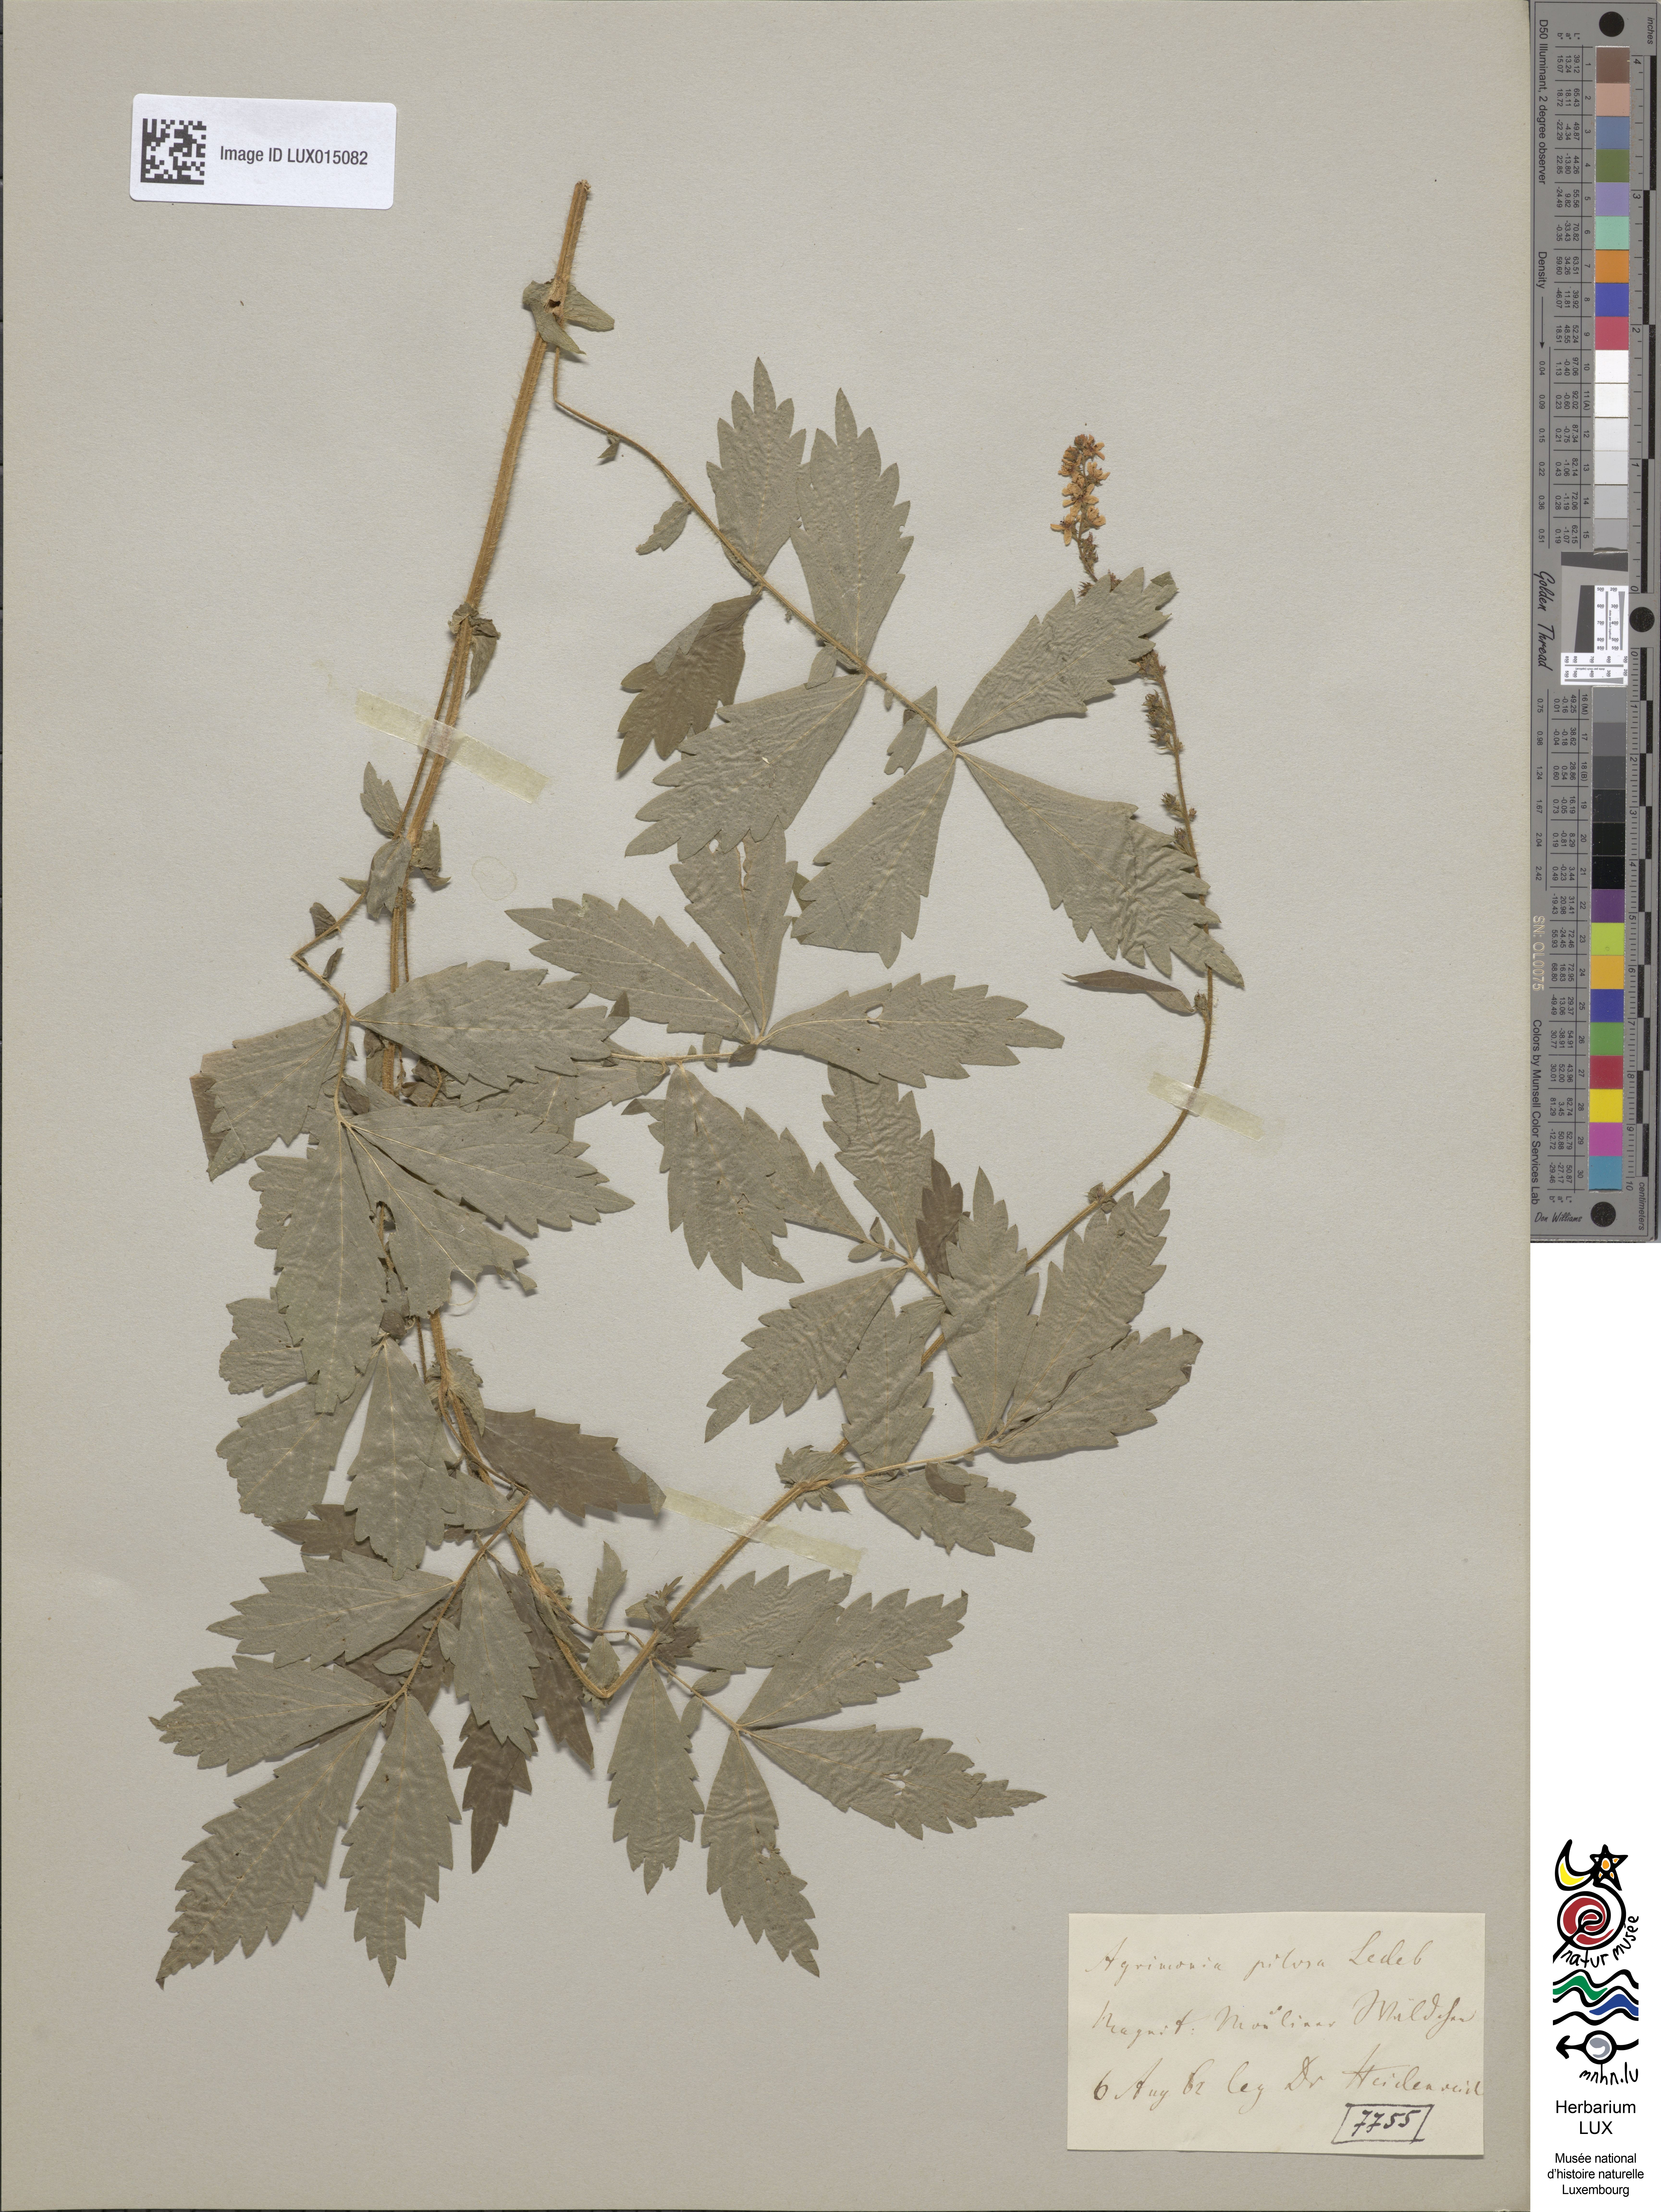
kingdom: Plantae
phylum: Tracheophyta
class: Magnoliopsida
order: Rosales
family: Rosaceae
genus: Agrimonia
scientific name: Agrimonia pilosa
